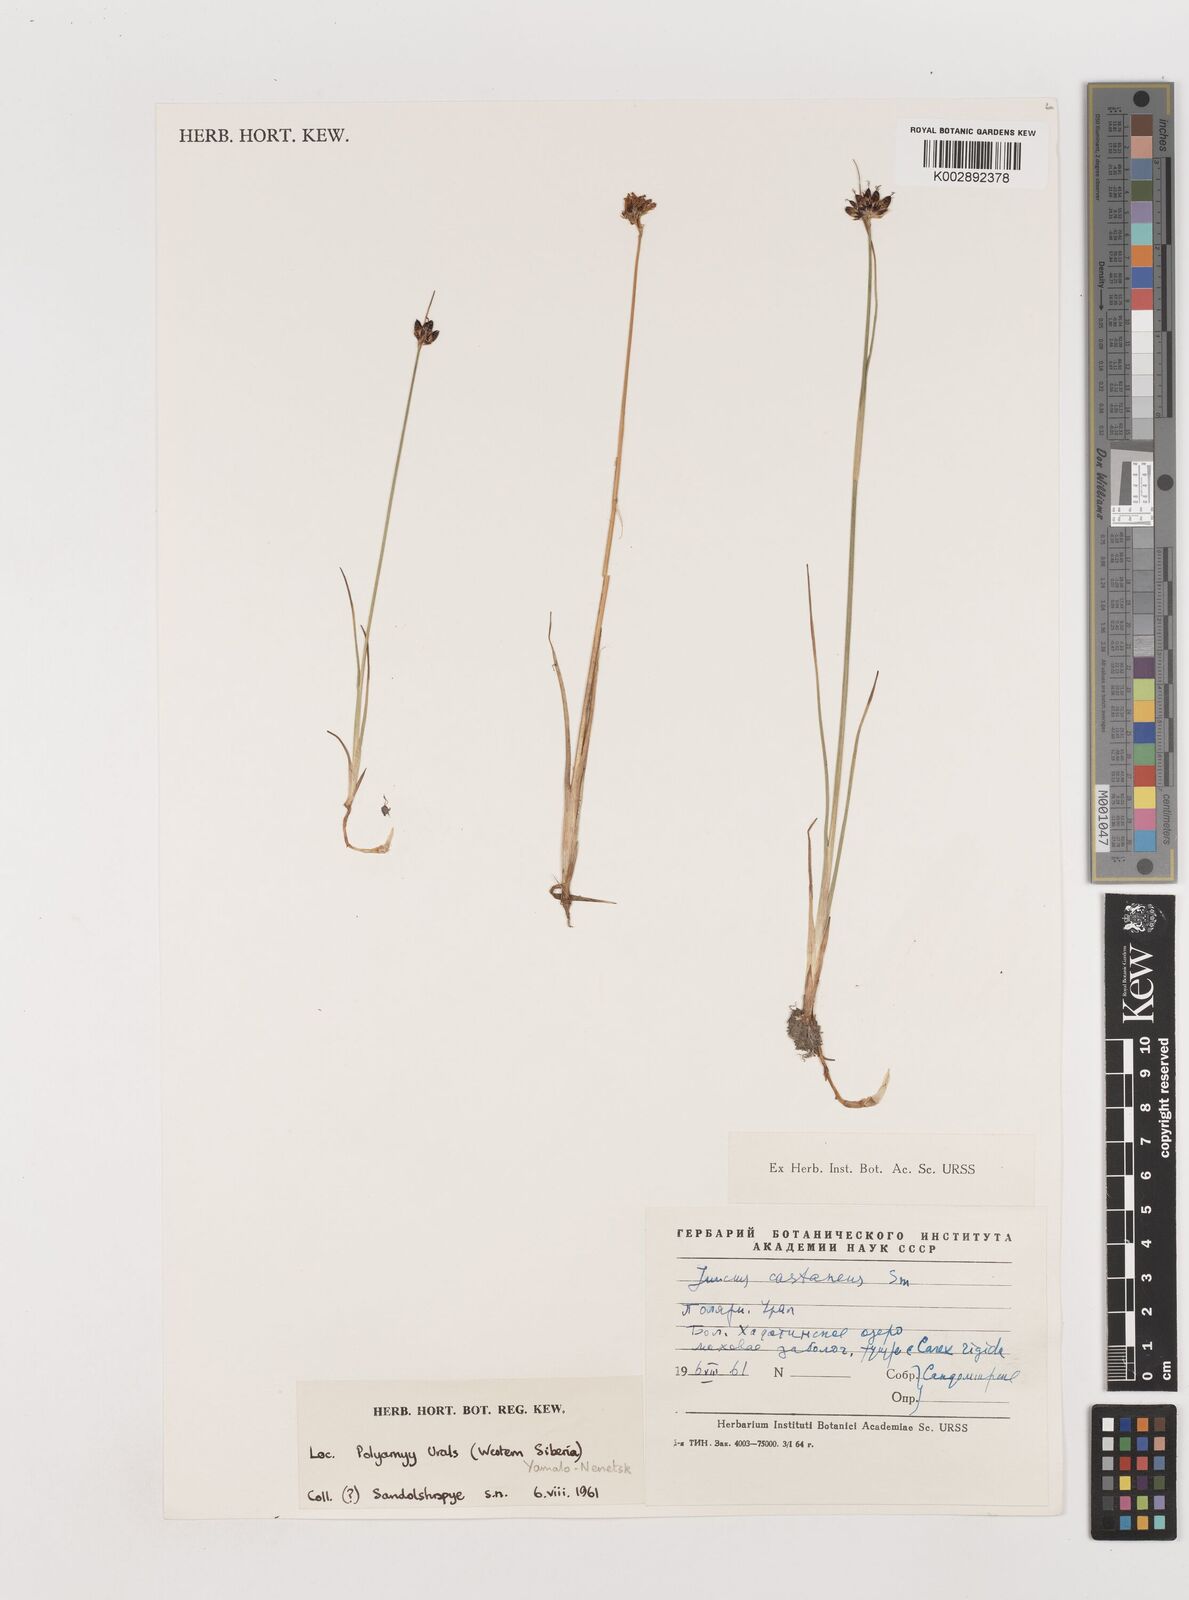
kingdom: Plantae
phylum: Tracheophyta
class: Liliopsida
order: Poales
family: Juncaceae
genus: Juncus
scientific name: Juncus castaneus
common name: Chestnut rush
